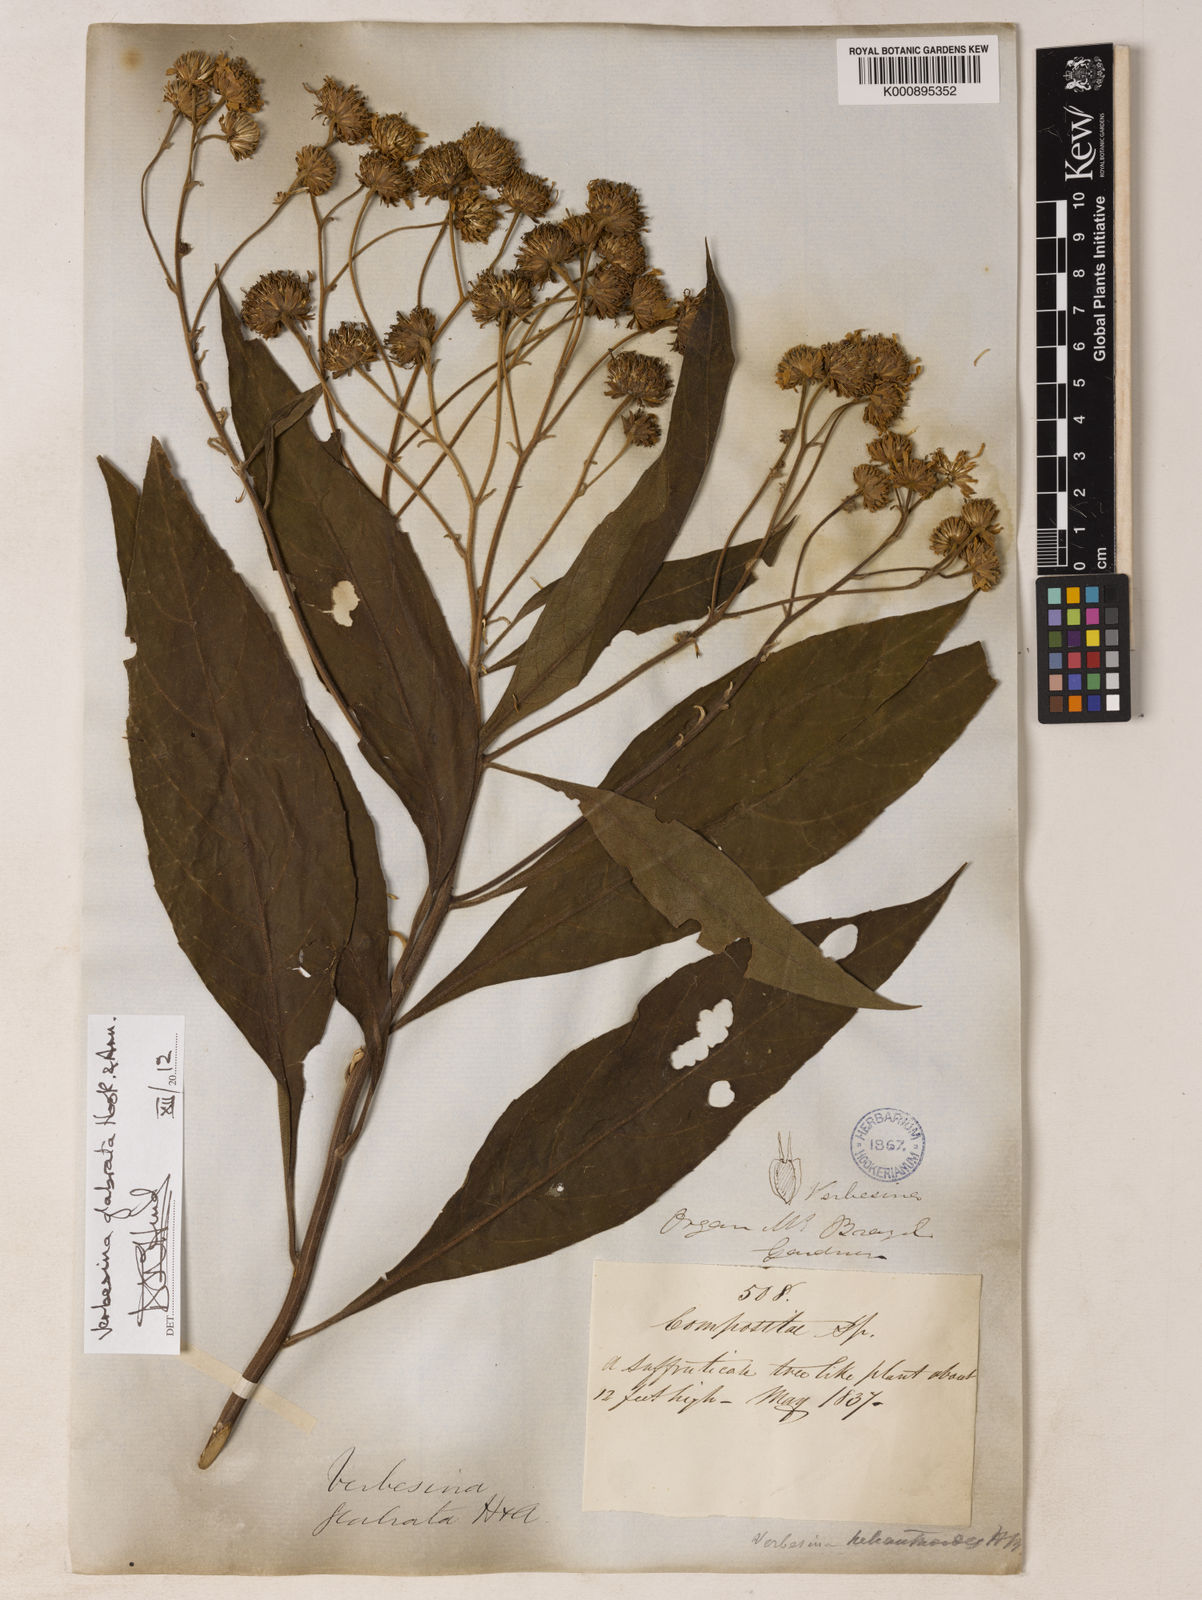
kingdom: Plantae
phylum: Tracheophyta
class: Magnoliopsida
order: Asterales
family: Asteraceae
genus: Verbesina
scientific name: Verbesina glabrata
